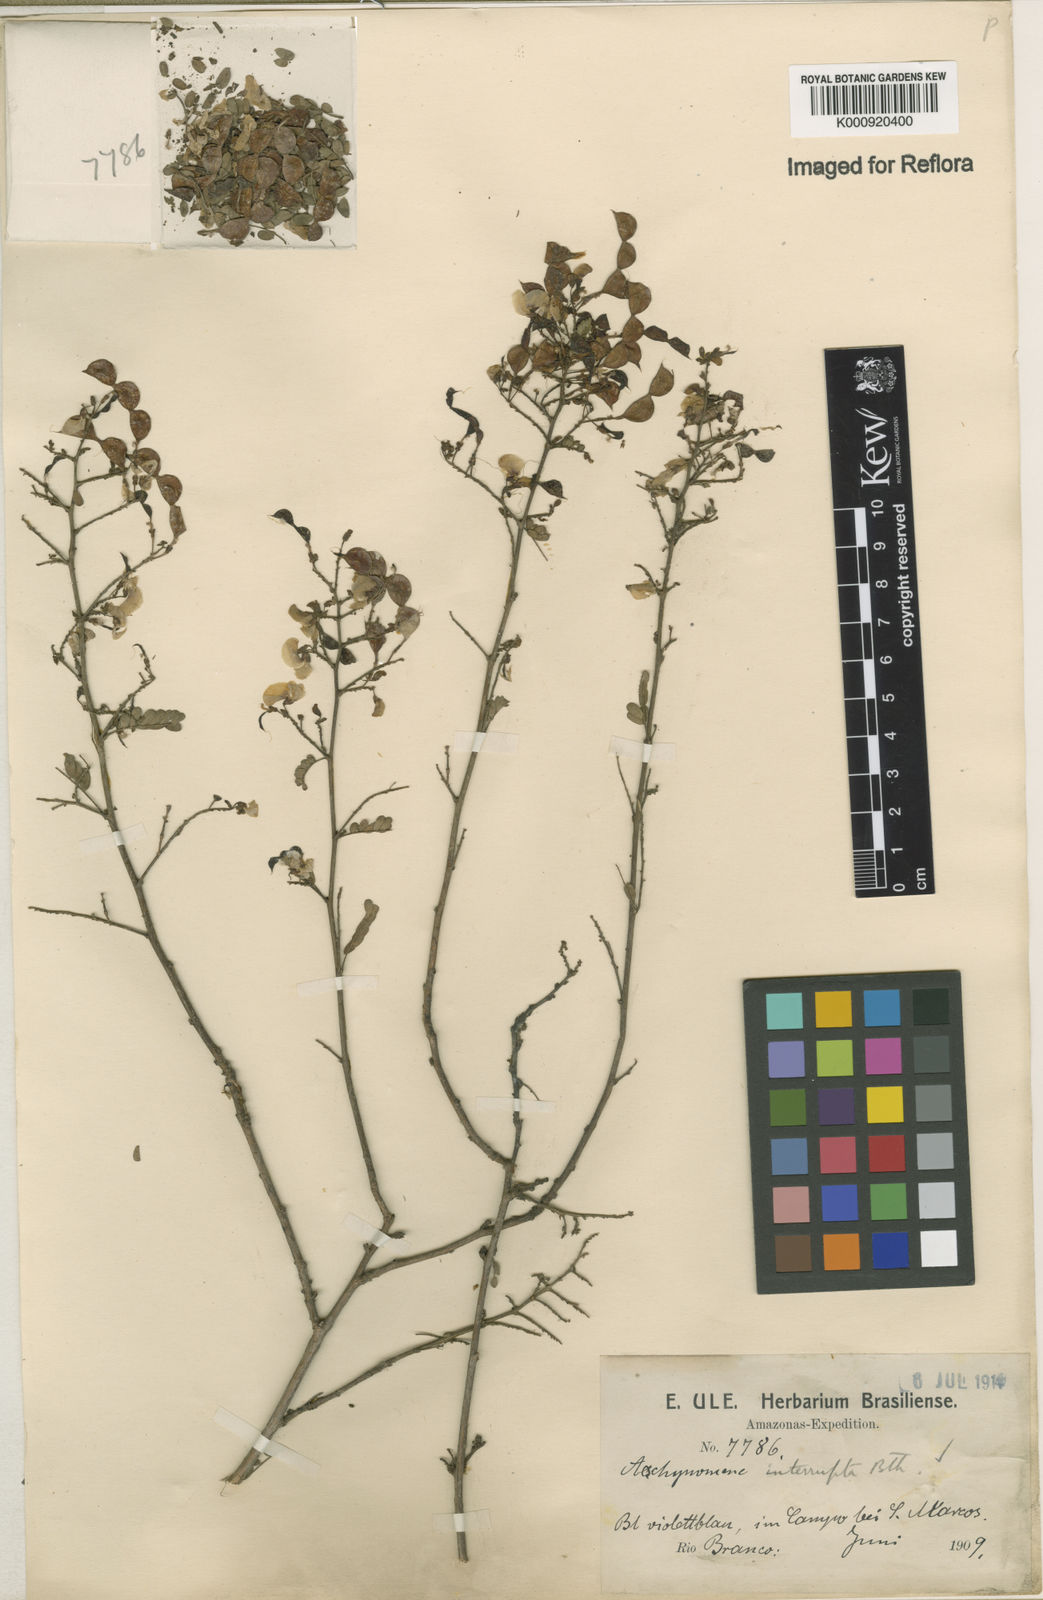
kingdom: Plantae
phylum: Tracheophyta
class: Magnoliopsida
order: Fabales
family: Fabaceae
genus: Ctenodon
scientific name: Ctenodon interruptus
